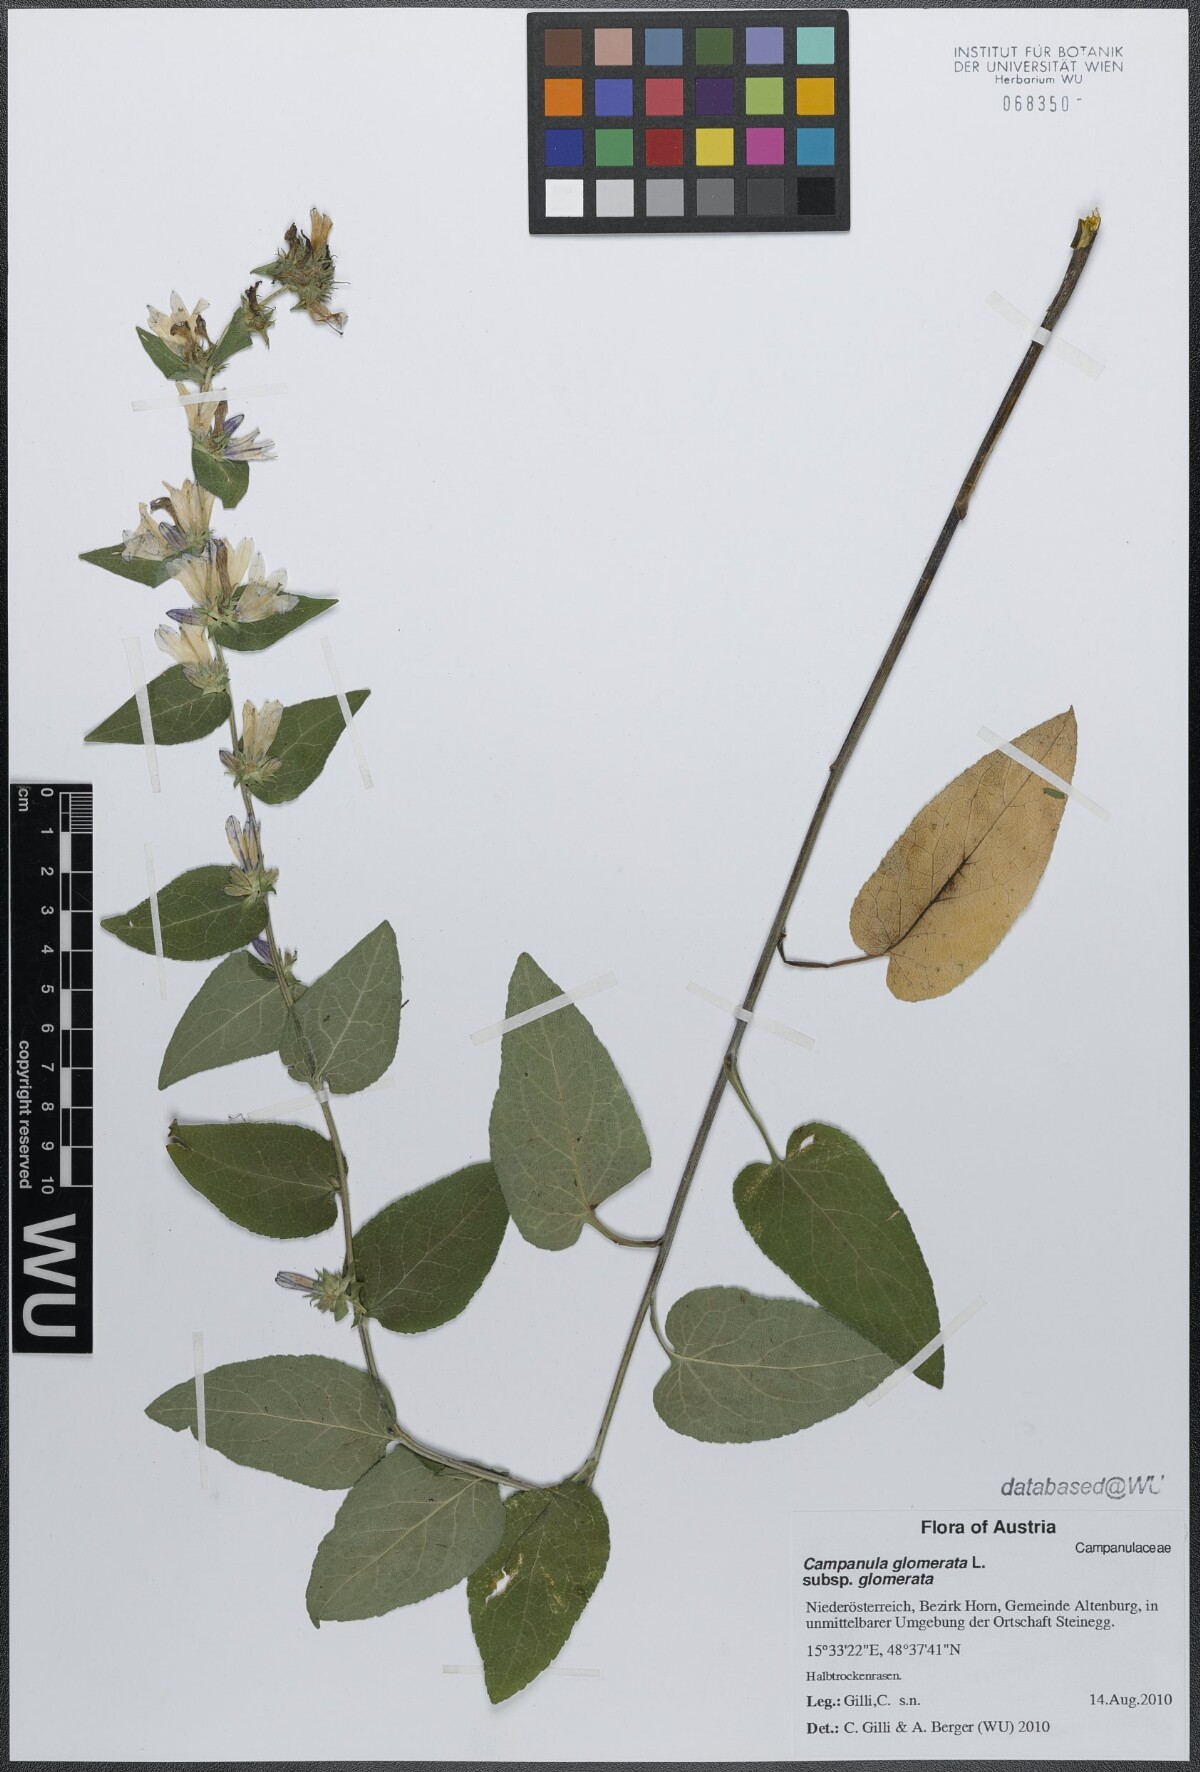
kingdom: Plantae
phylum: Tracheophyta
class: Magnoliopsida
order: Asterales
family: Campanulaceae
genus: Campanula
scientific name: Campanula glomerata
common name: Clustered bellflower
